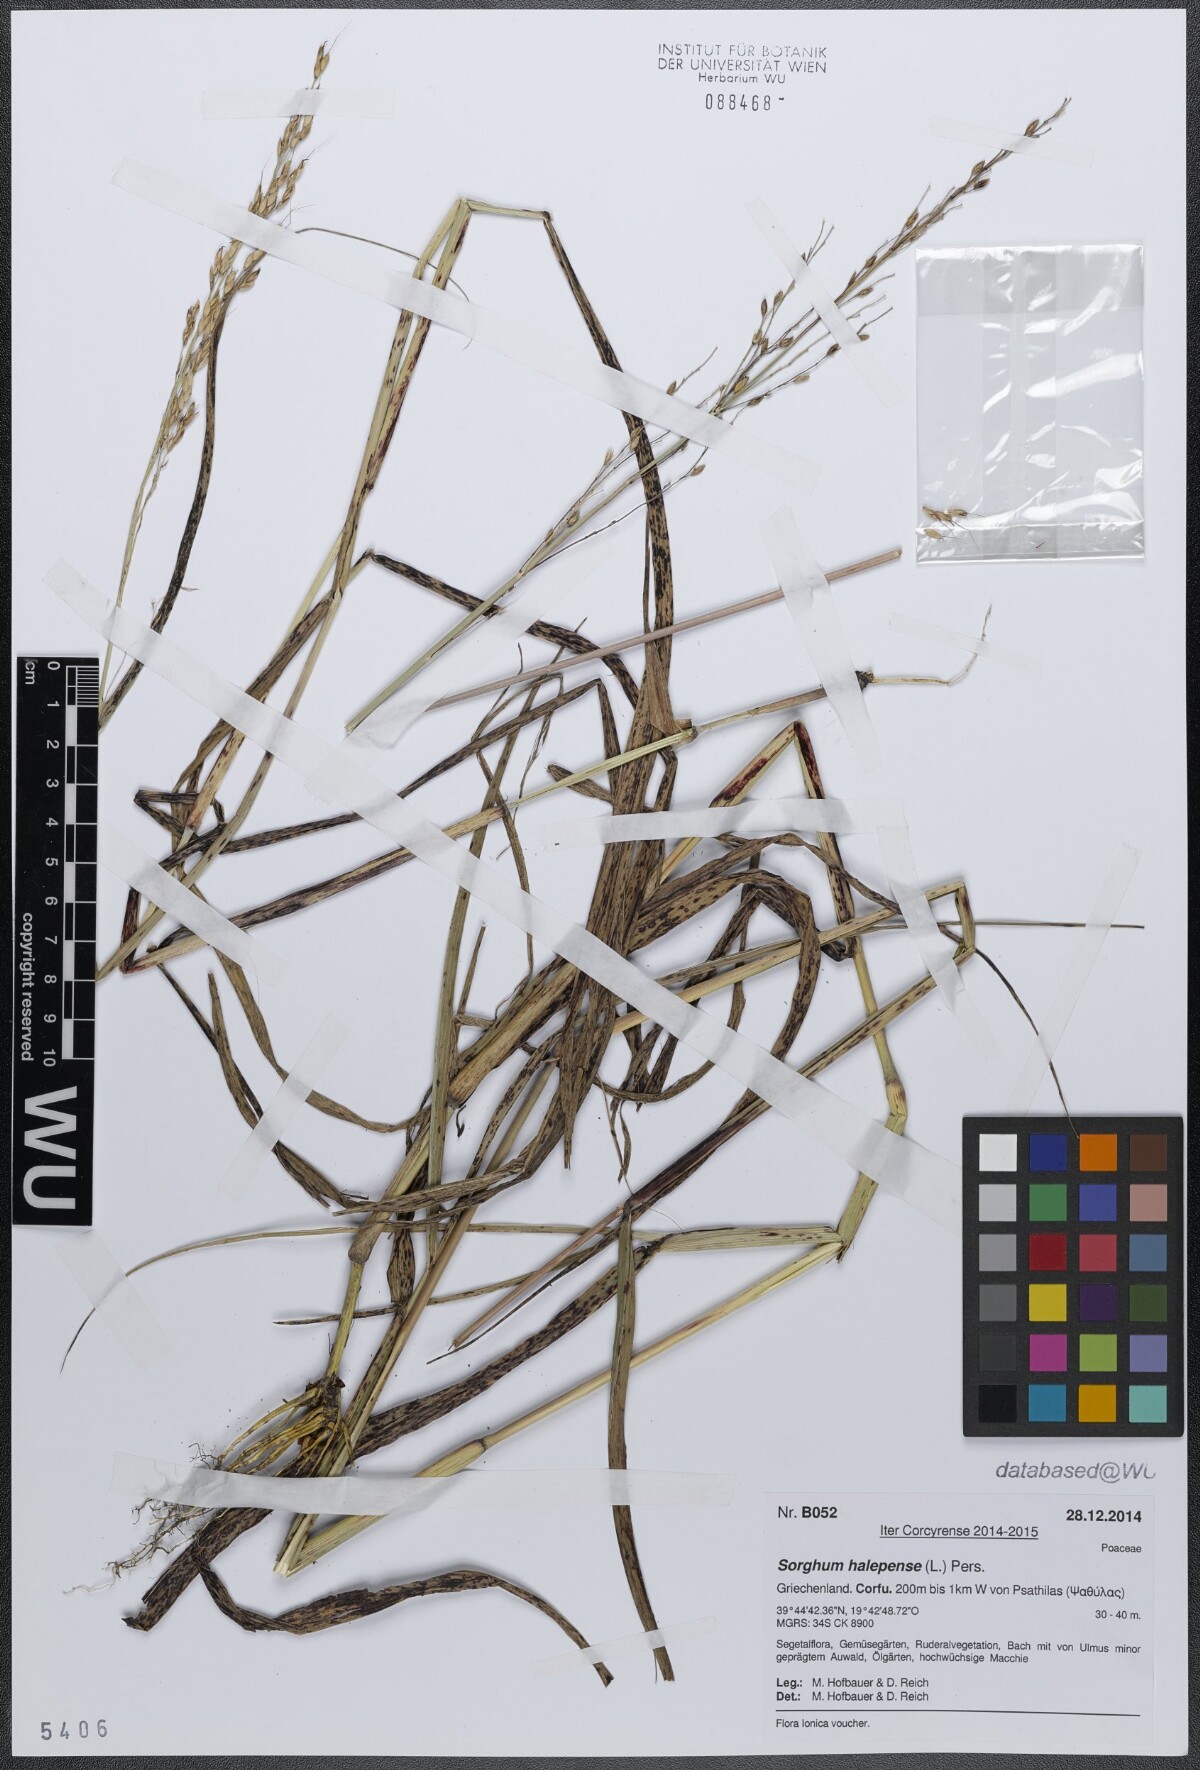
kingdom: Plantae
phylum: Tracheophyta
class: Liliopsida
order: Poales
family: Poaceae
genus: Sorghum
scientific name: Sorghum halepense
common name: Johnson-grass
